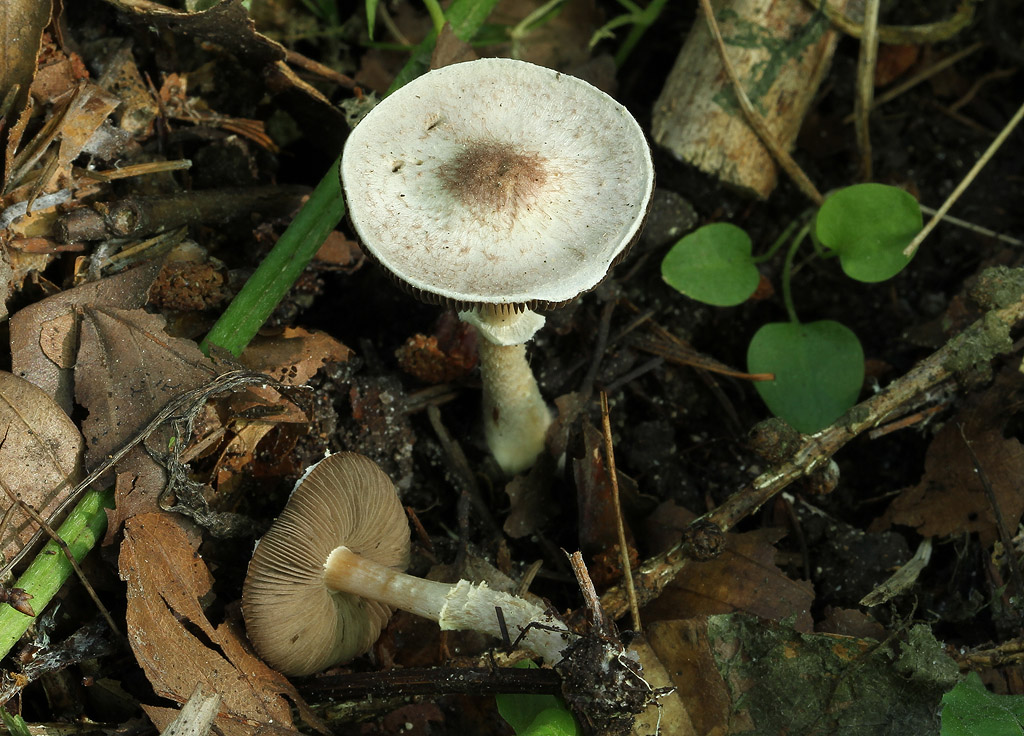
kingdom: Fungi
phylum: Basidiomycota
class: Agaricomycetes
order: Agaricales
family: Agaricaceae
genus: Agaricus
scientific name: Agaricus dulcidulus
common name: blegrød champignon
